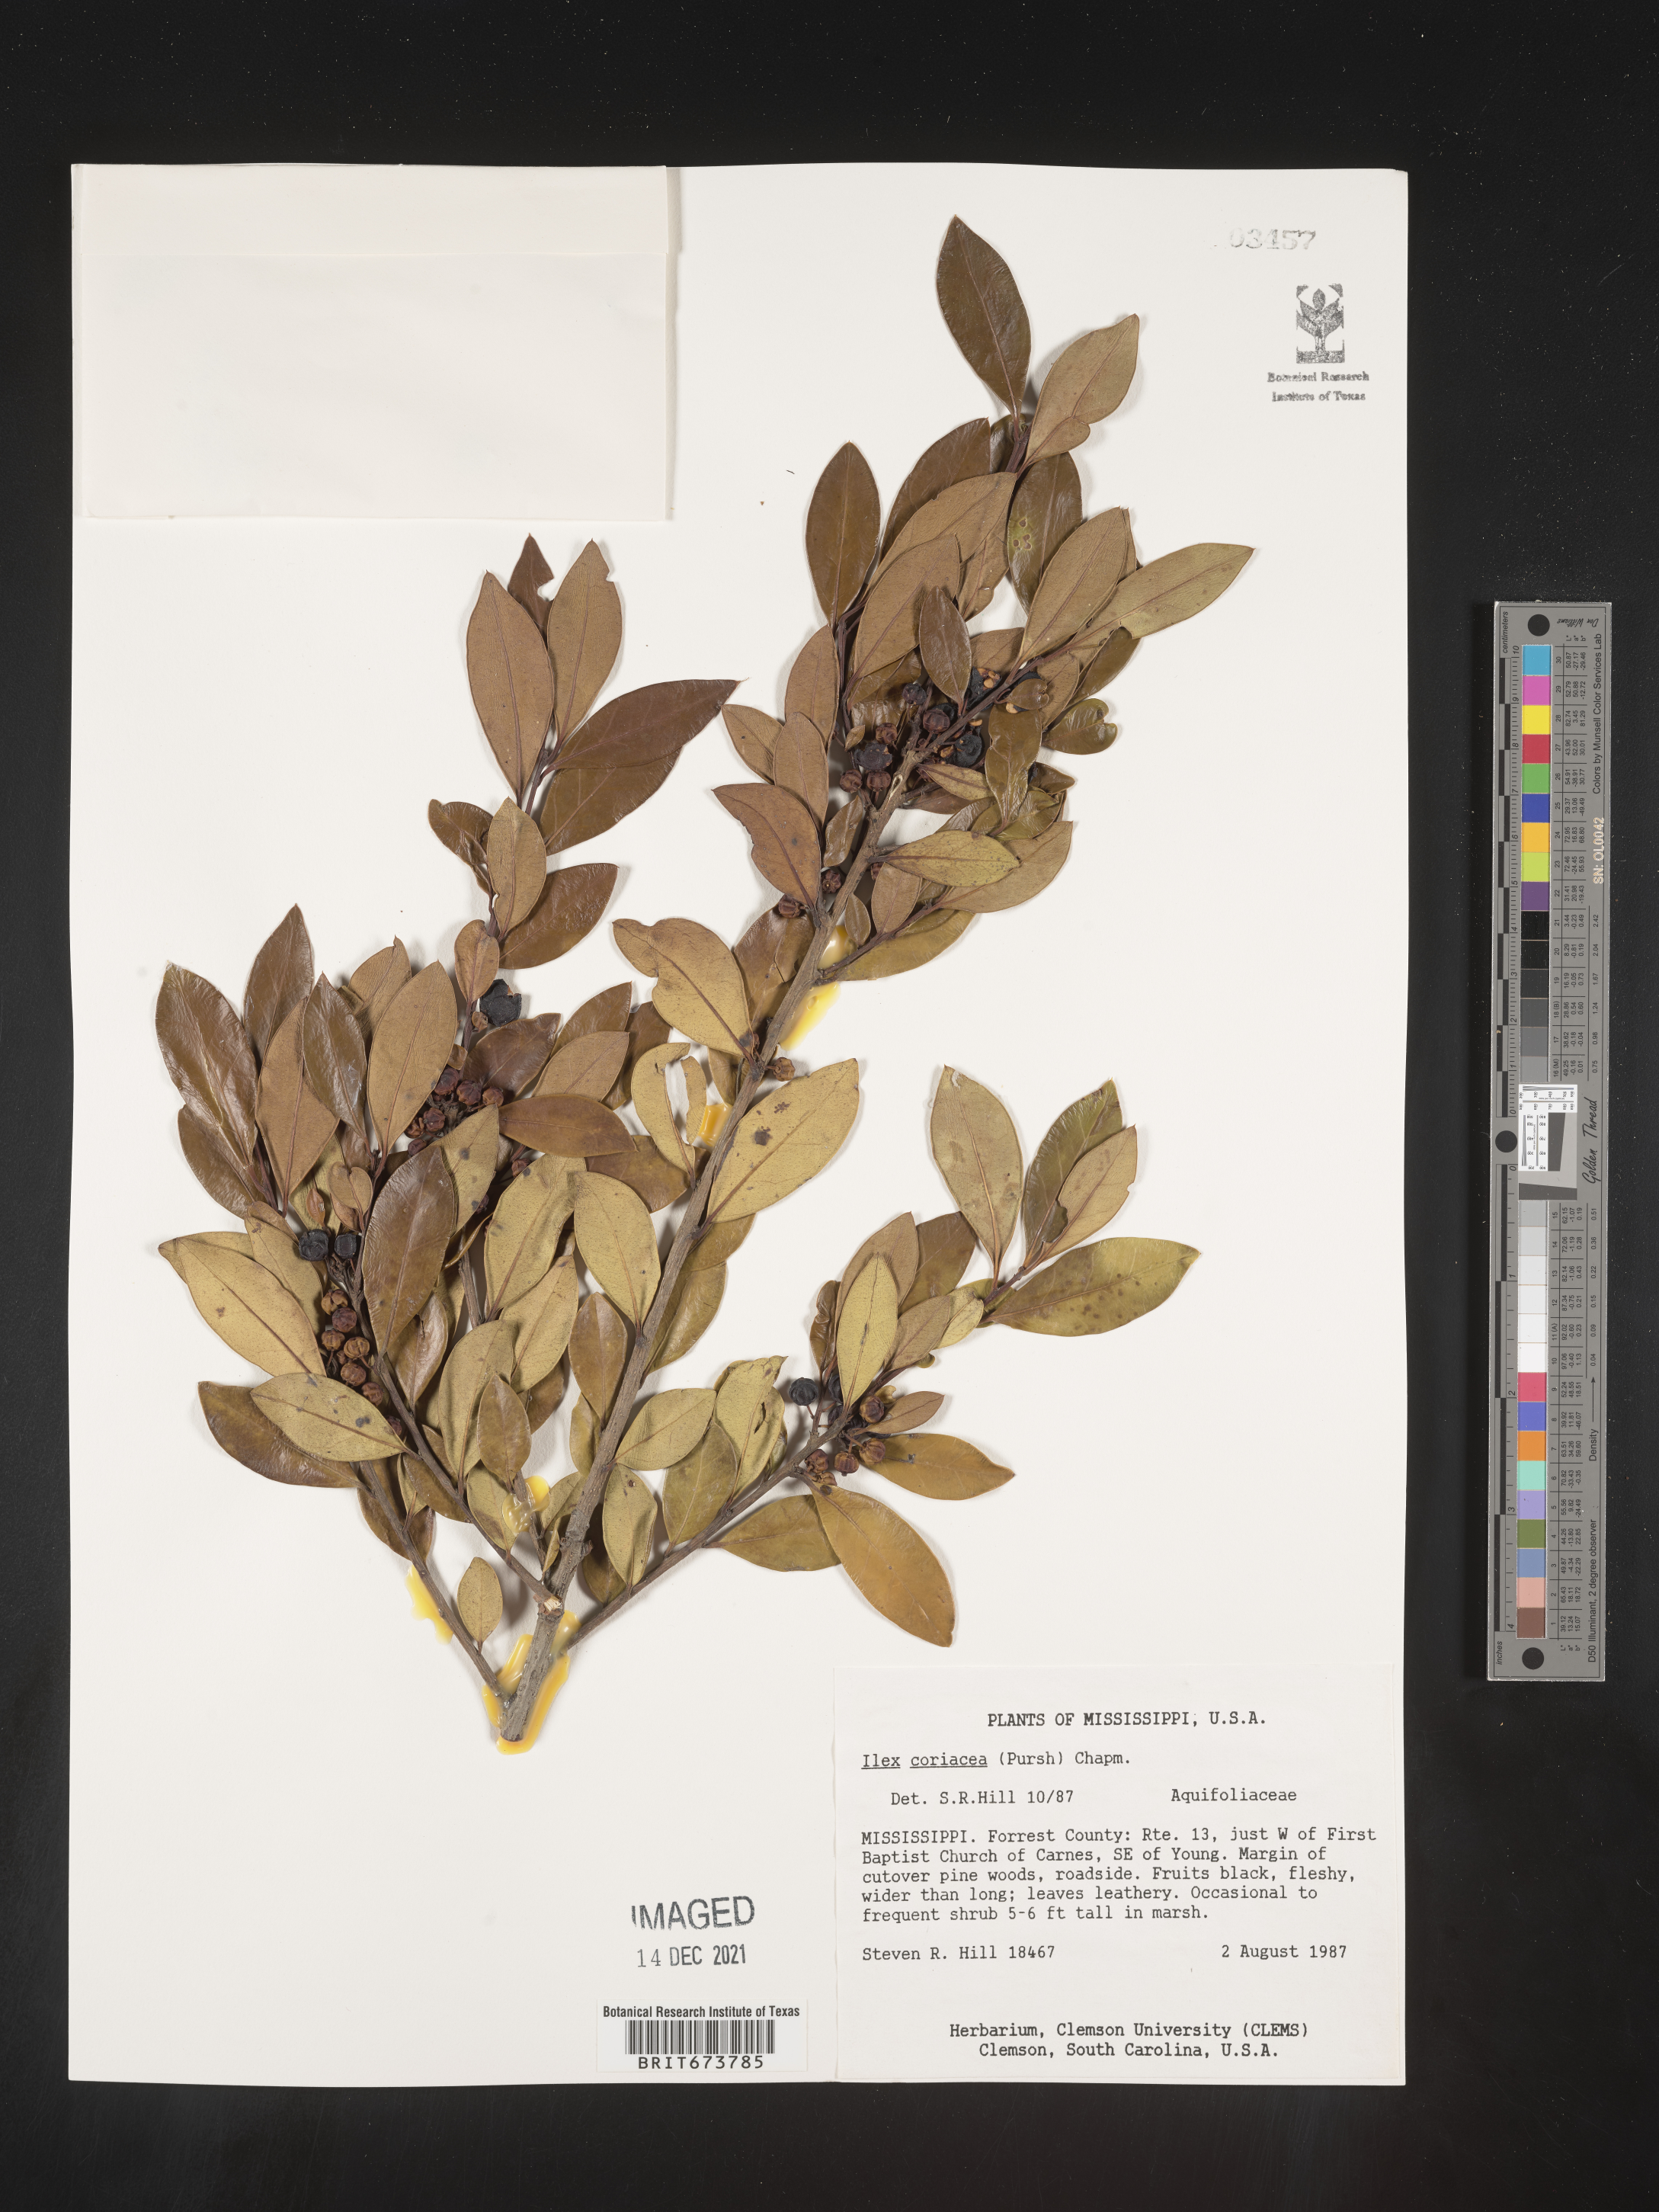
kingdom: Plantae
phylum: Tracheophyta
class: Magnoliopsida
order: Aquifoliales
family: Aquifoliaceae
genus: Ilex
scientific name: Ilex coriacea
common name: Sweet gallberry
